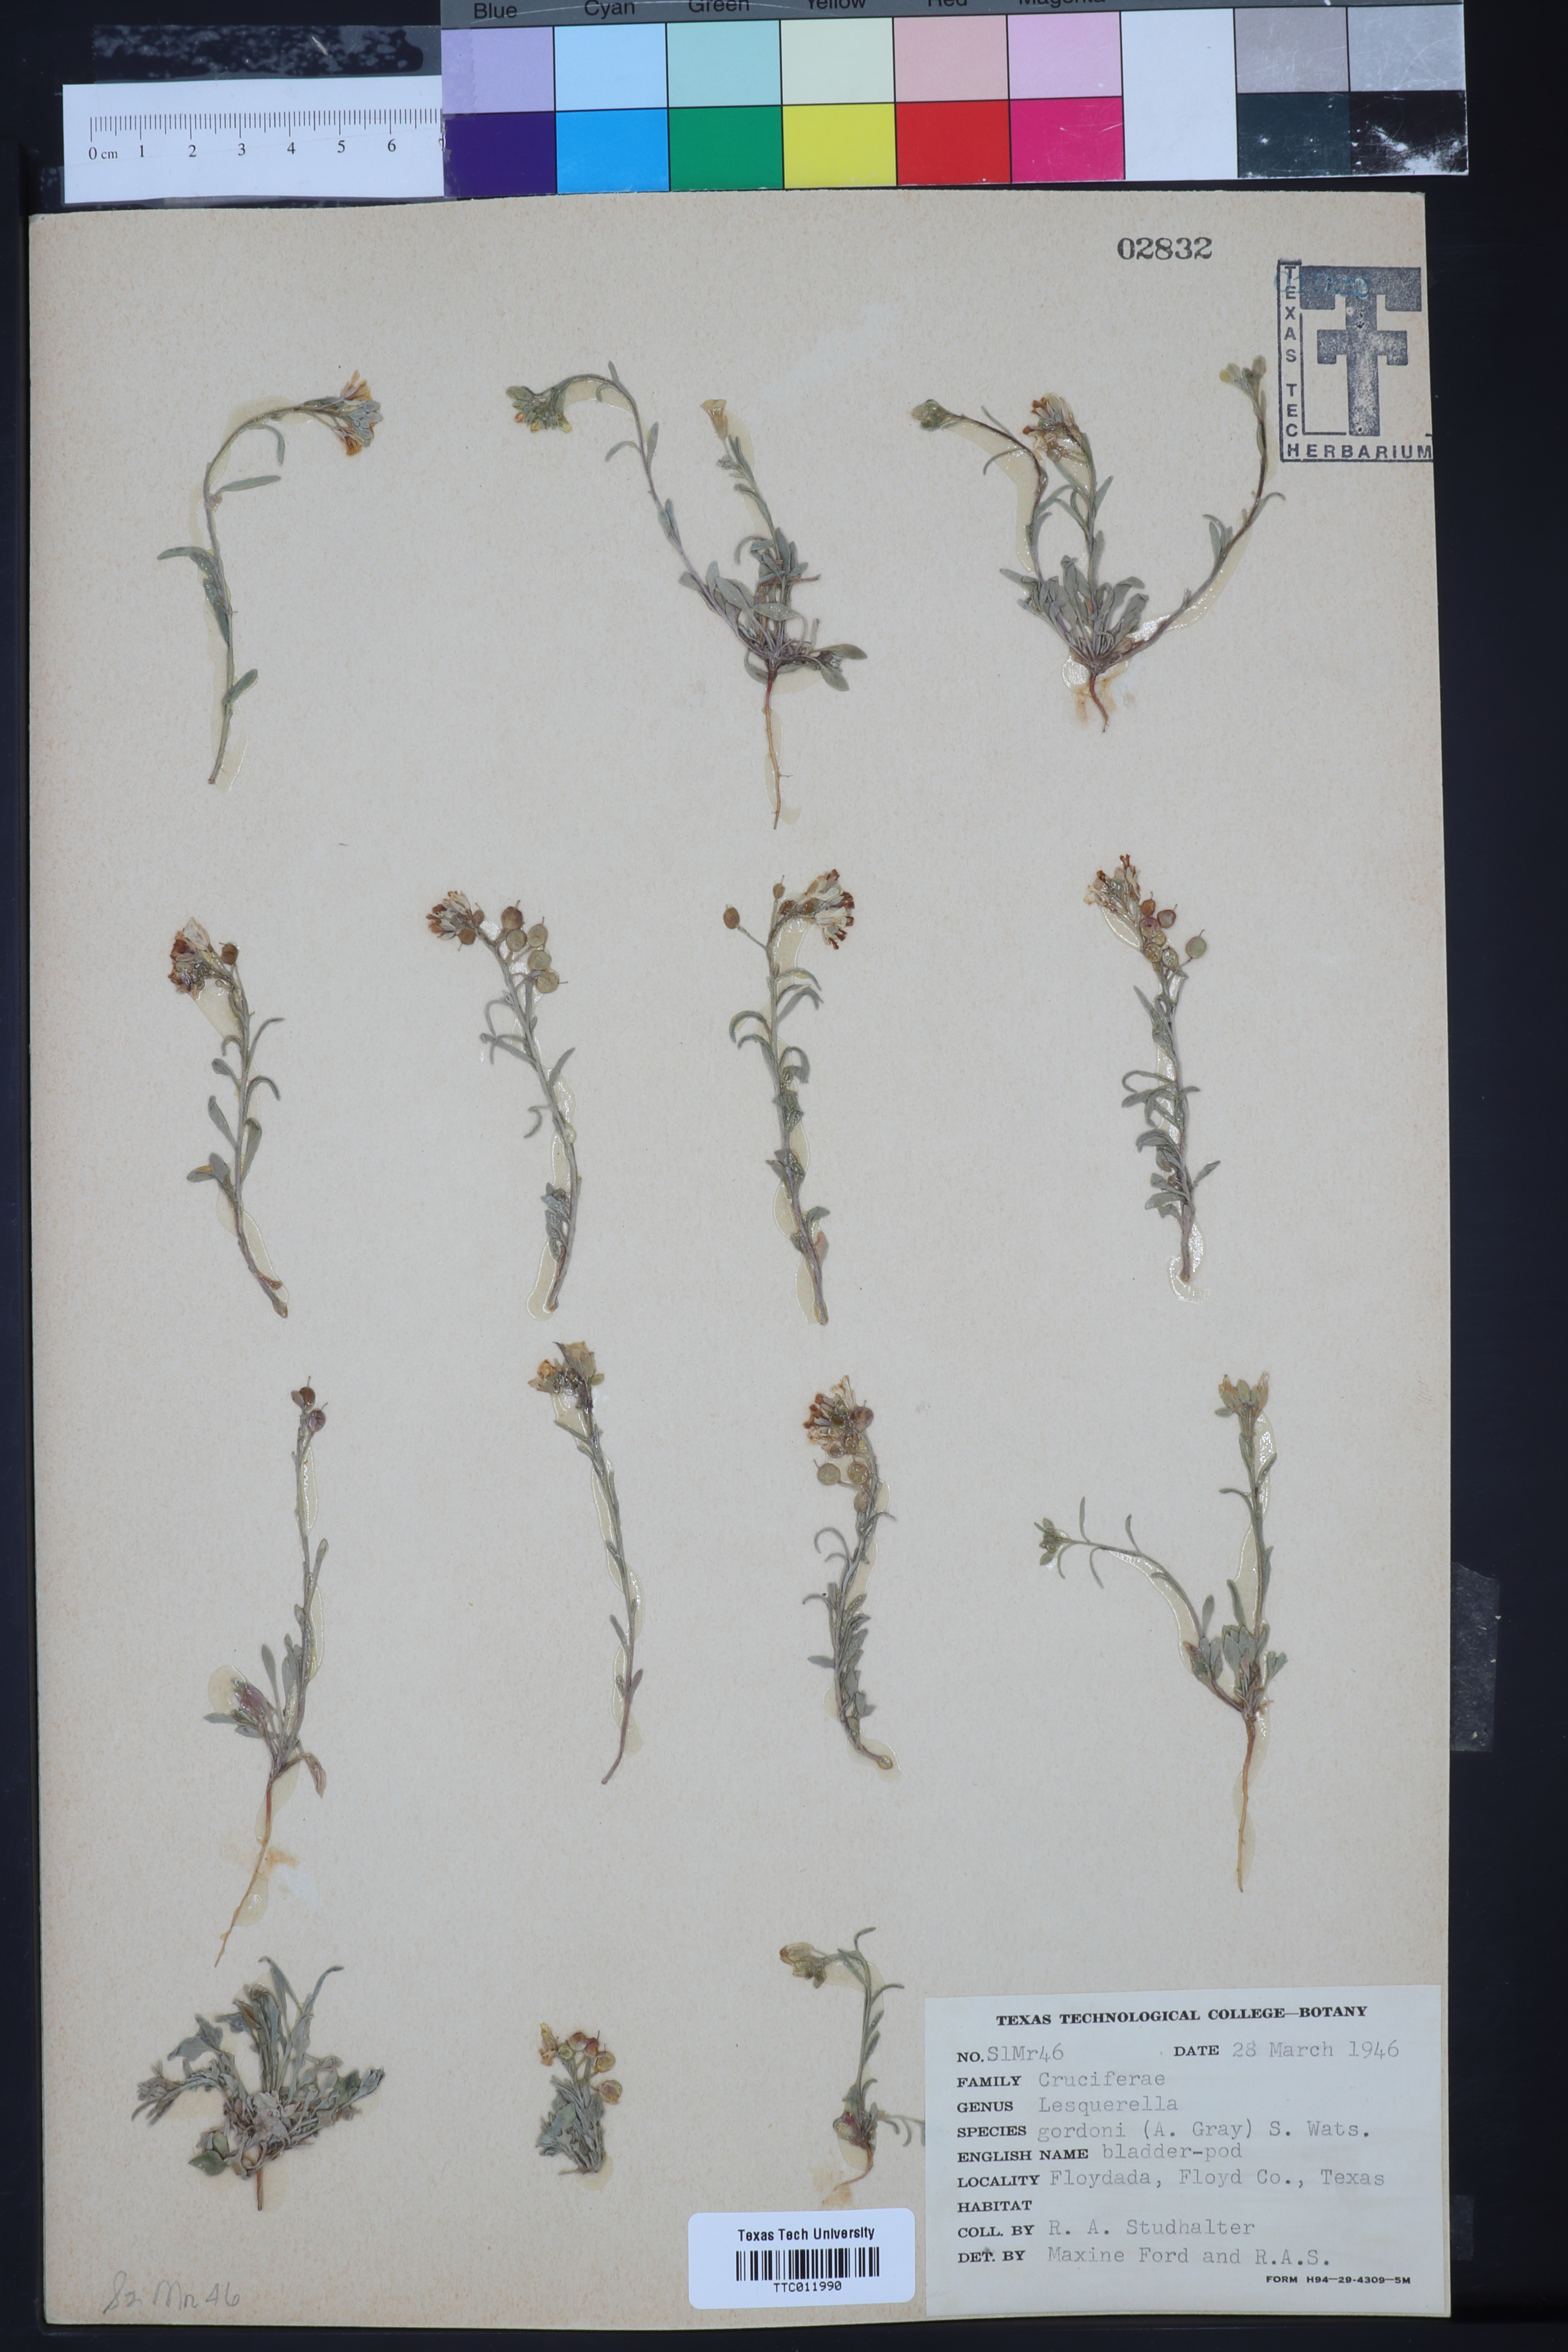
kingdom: Plantae
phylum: Tracheophyta
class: Magnoliopsida
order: Brassicales
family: Brassicaceae
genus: Physaria
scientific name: Physaria gordonii
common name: Gordon's bladderpod
